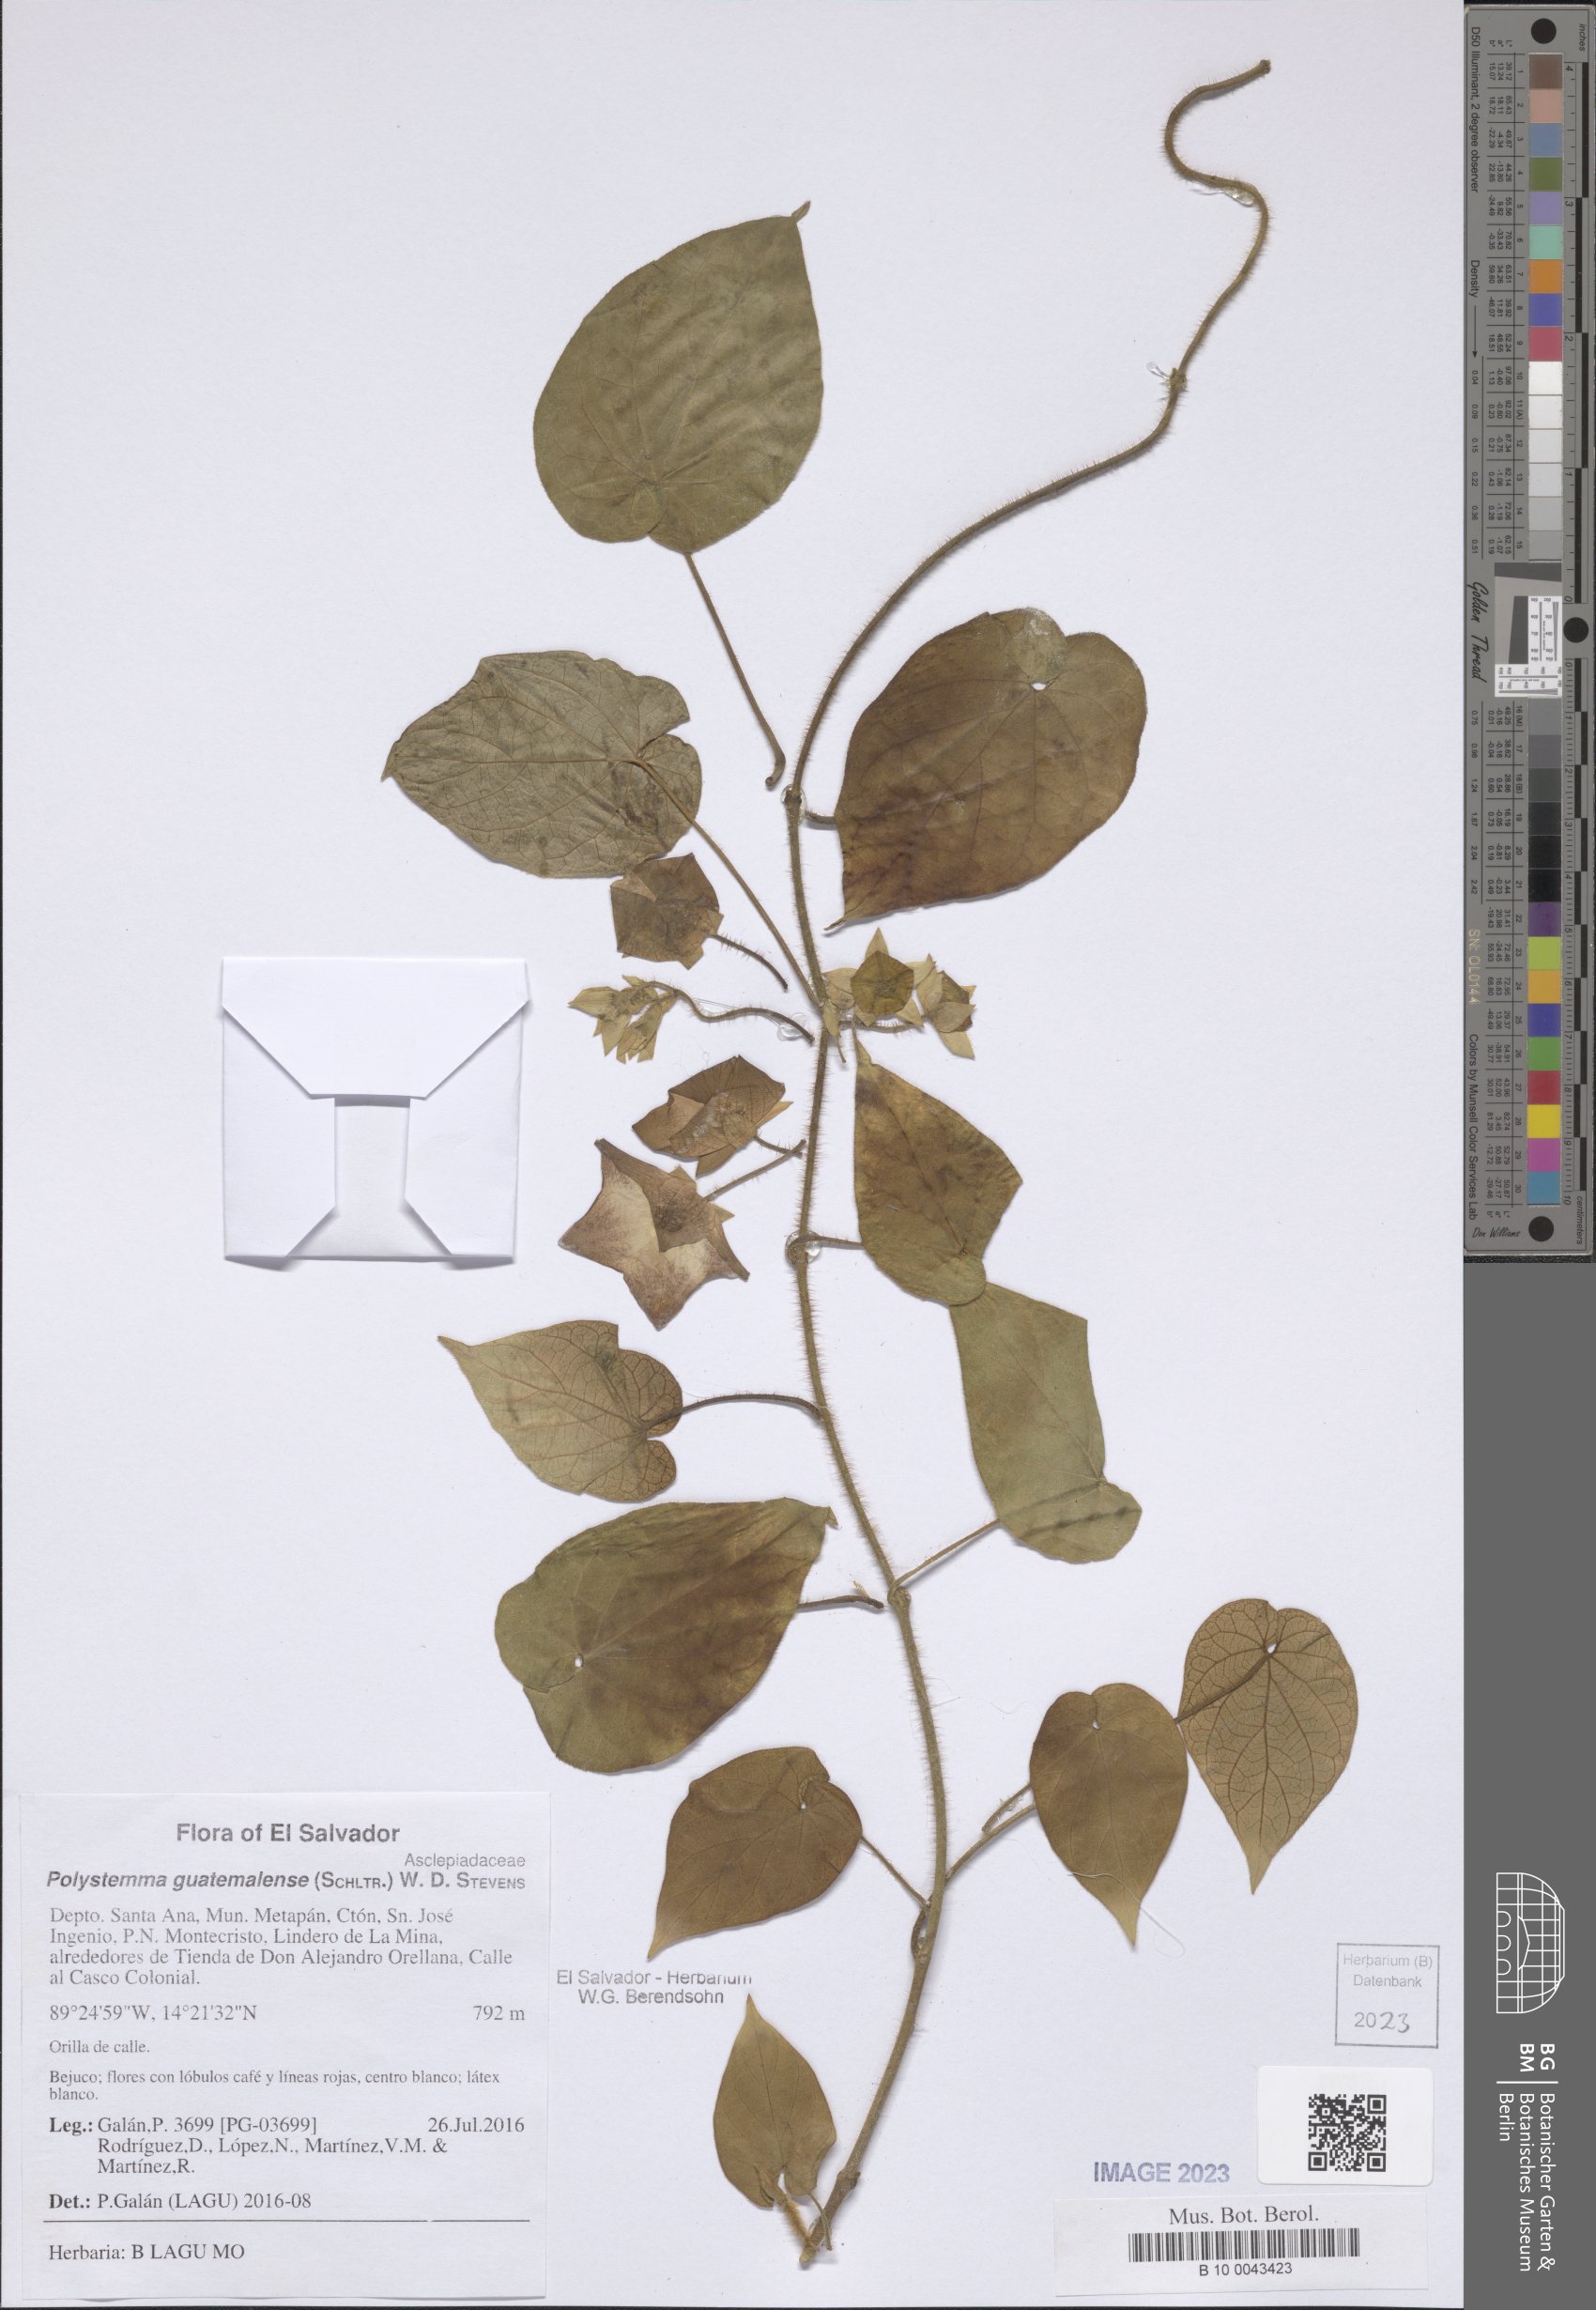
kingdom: Plantae
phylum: Tracheophyta
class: Magnoliopsida
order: Gentianales
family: Apocynaceae
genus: Polystemma
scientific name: Polystemma guatemalense
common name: Arborescente rattan
